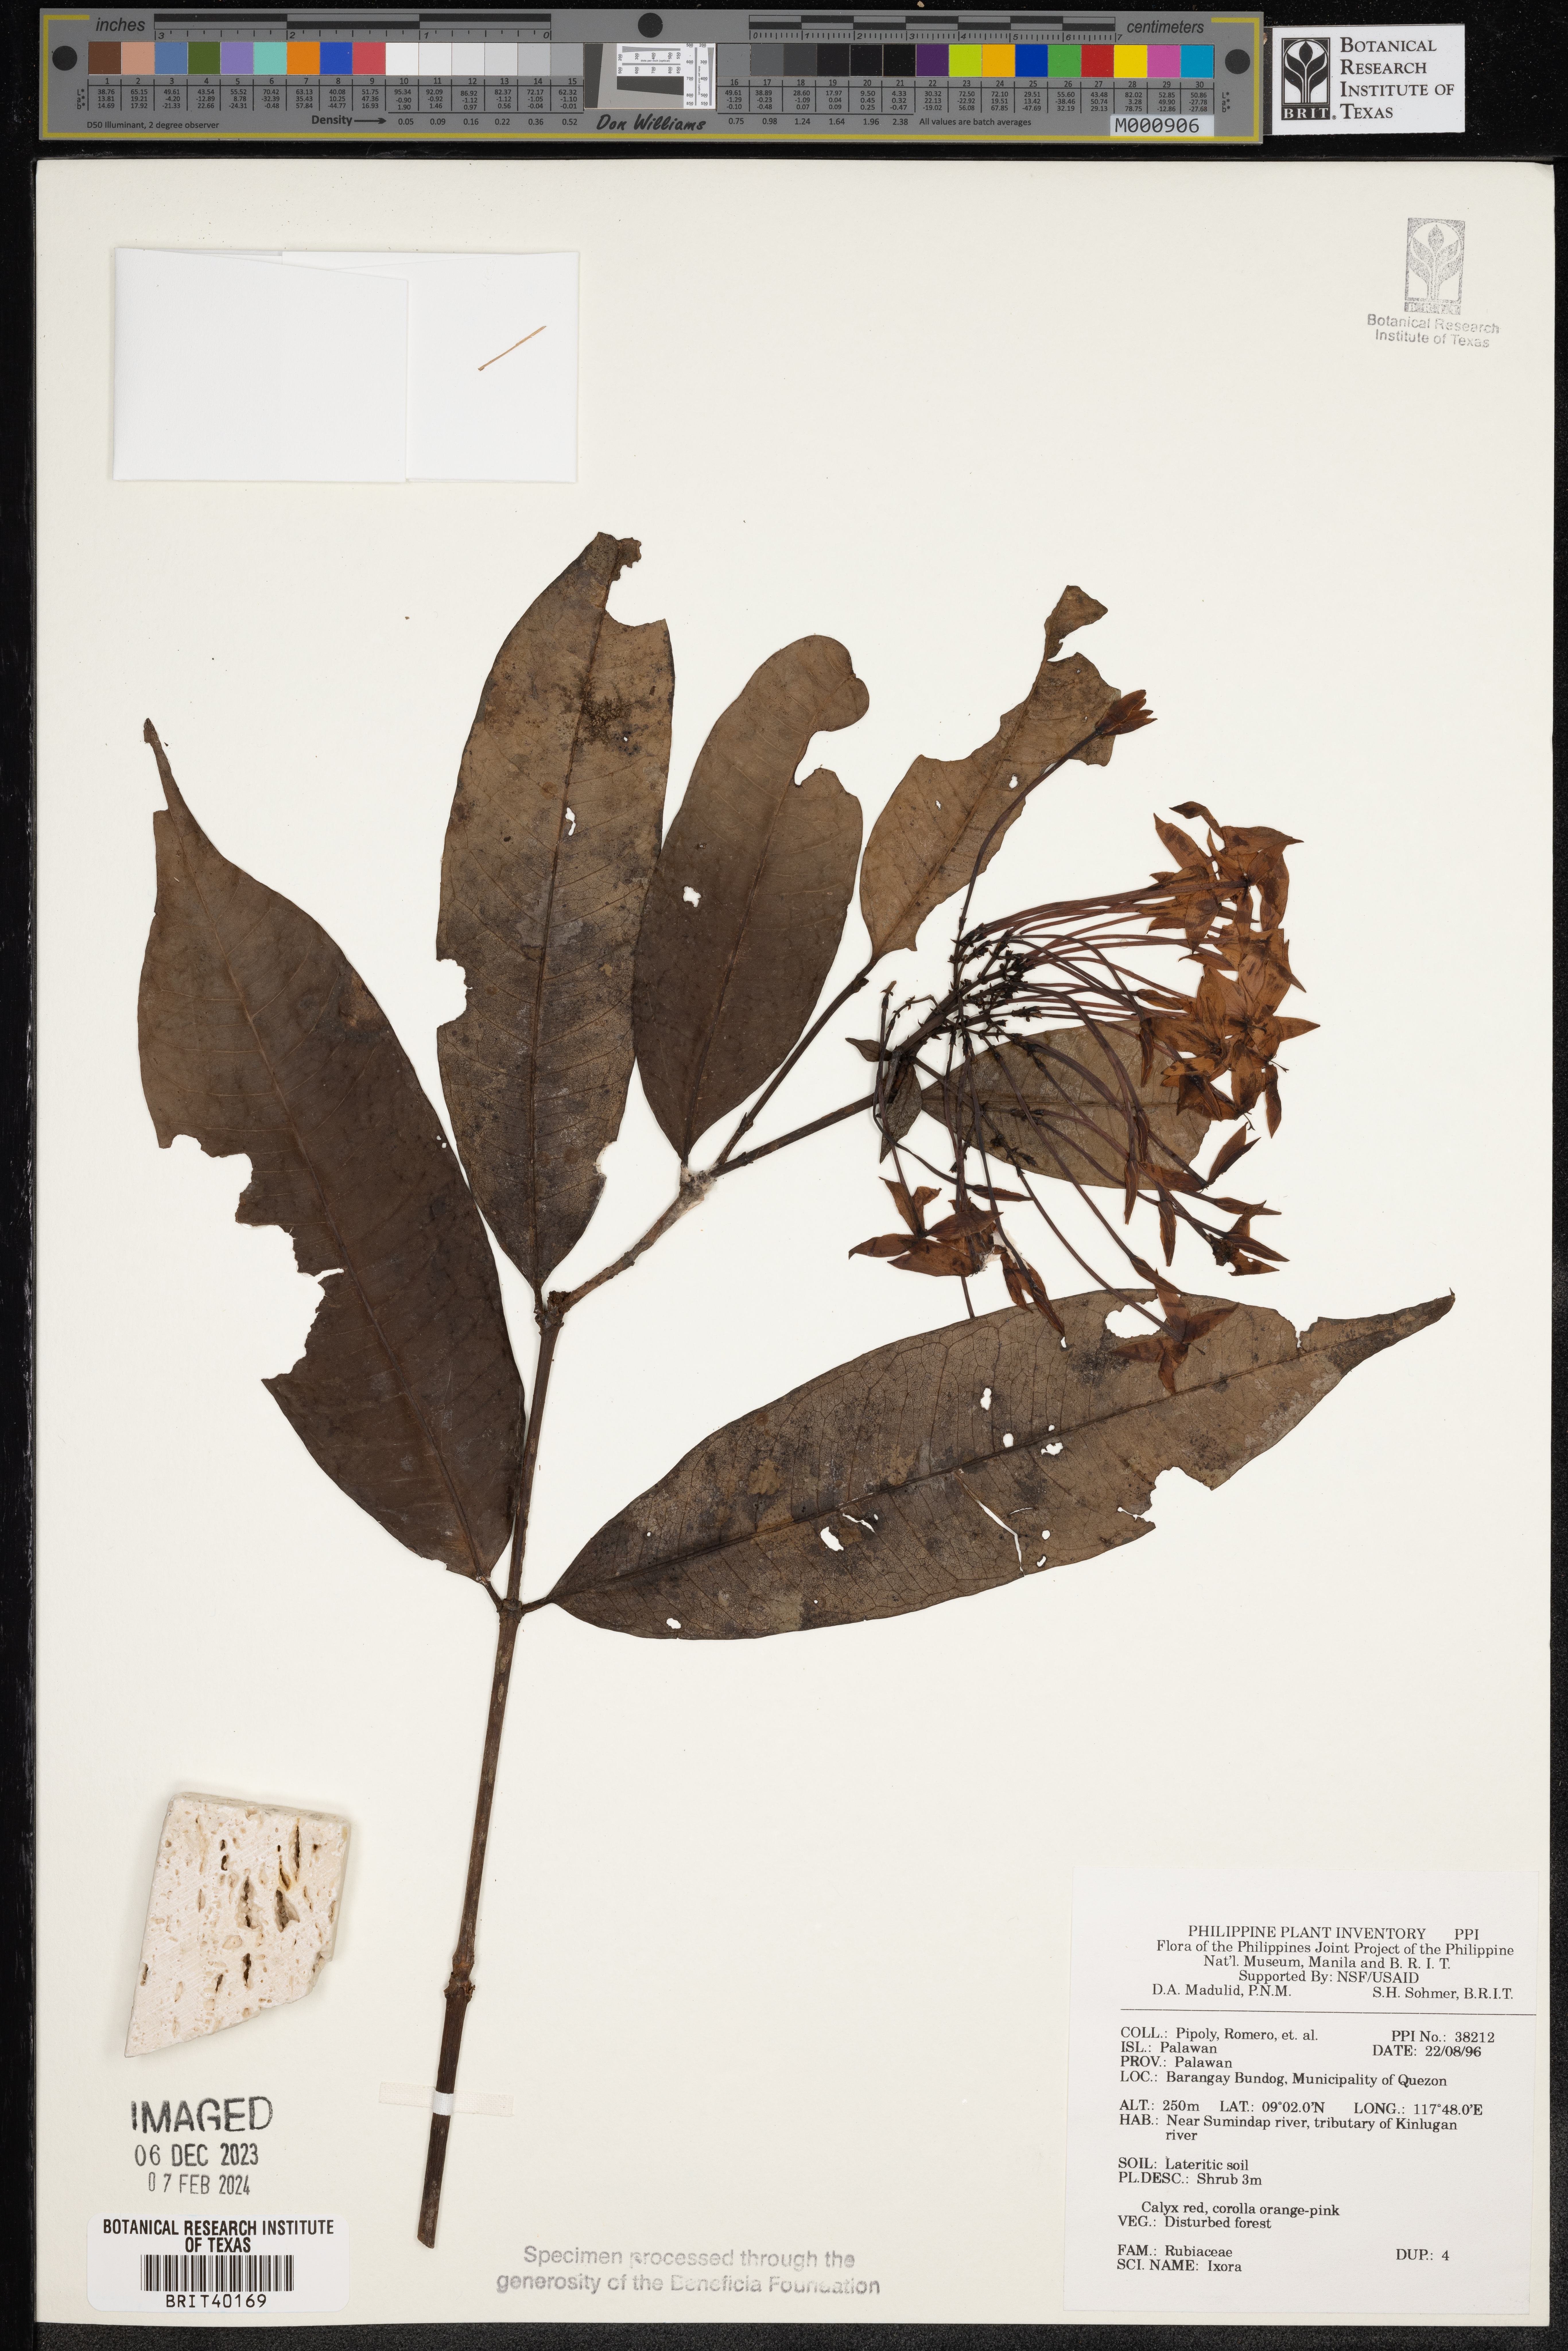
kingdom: Plantae
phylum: Tracheophyta
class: Magnoliopsida
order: Gentianales
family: Rubiaceae
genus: Ixora
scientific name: Ixora
